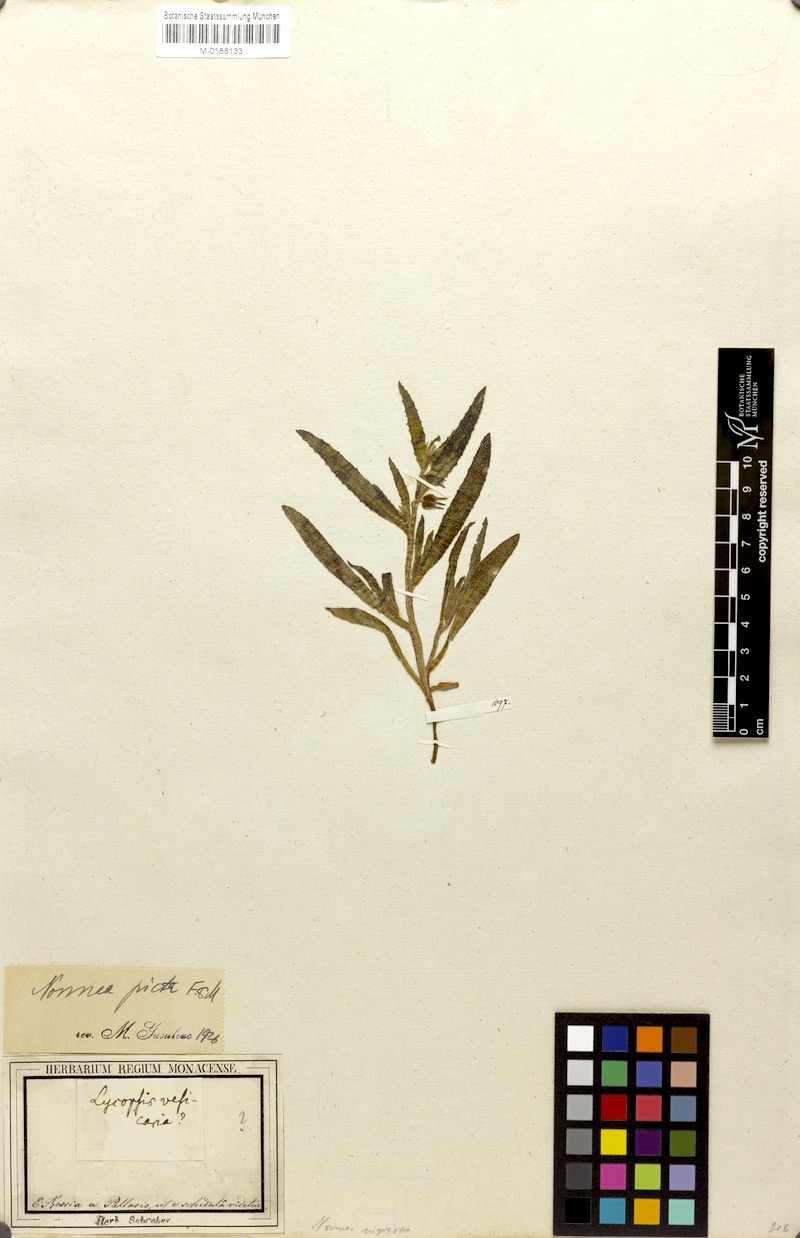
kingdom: Plantae
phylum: Tracheophyta
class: Magnoliopsida
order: Boraginales
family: Boraginaceae
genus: Nonea
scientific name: Nonea caspica
